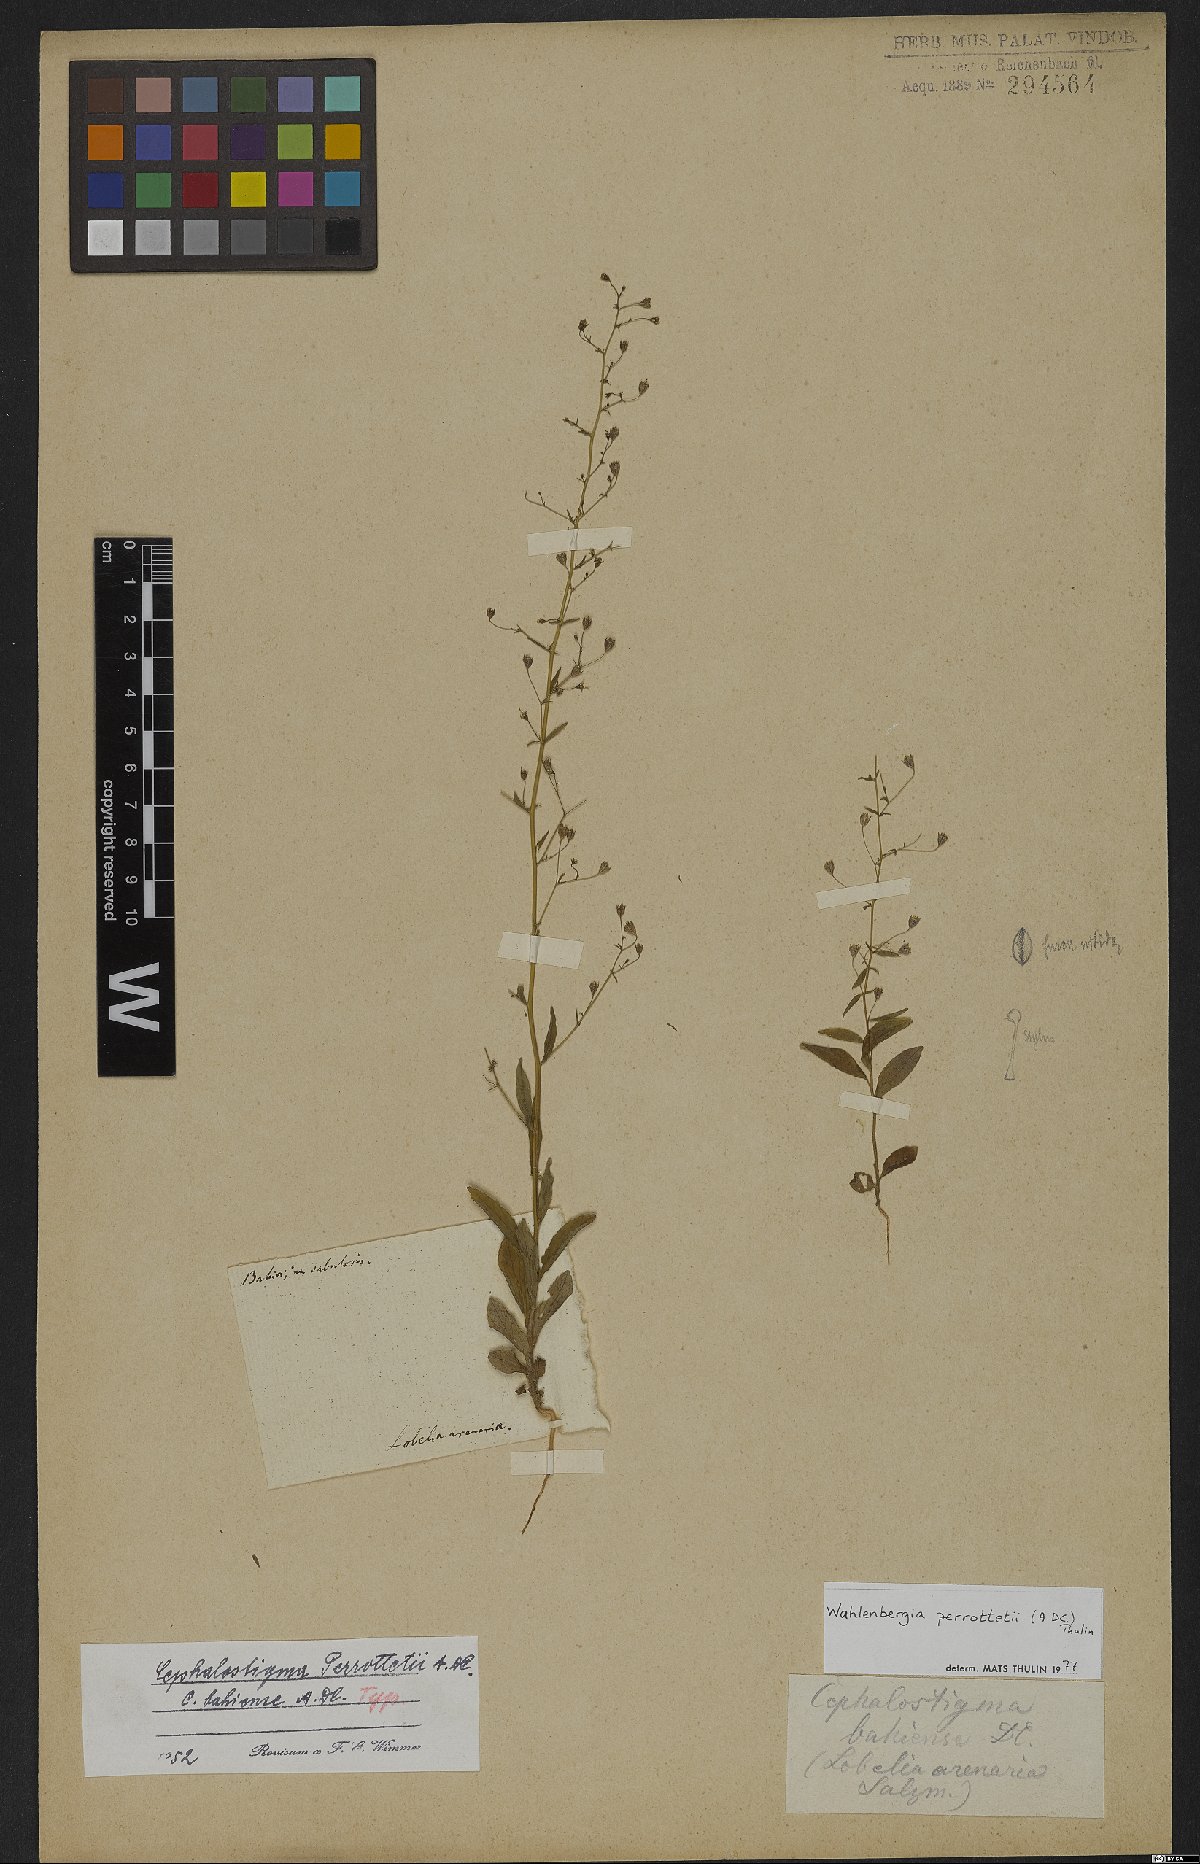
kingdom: Plantae
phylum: Tracheophyta
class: Magnoliopsida
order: Asterales
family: Campanulaceae
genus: Wahlenbergia
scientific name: Wahlenbergia perrottetii
